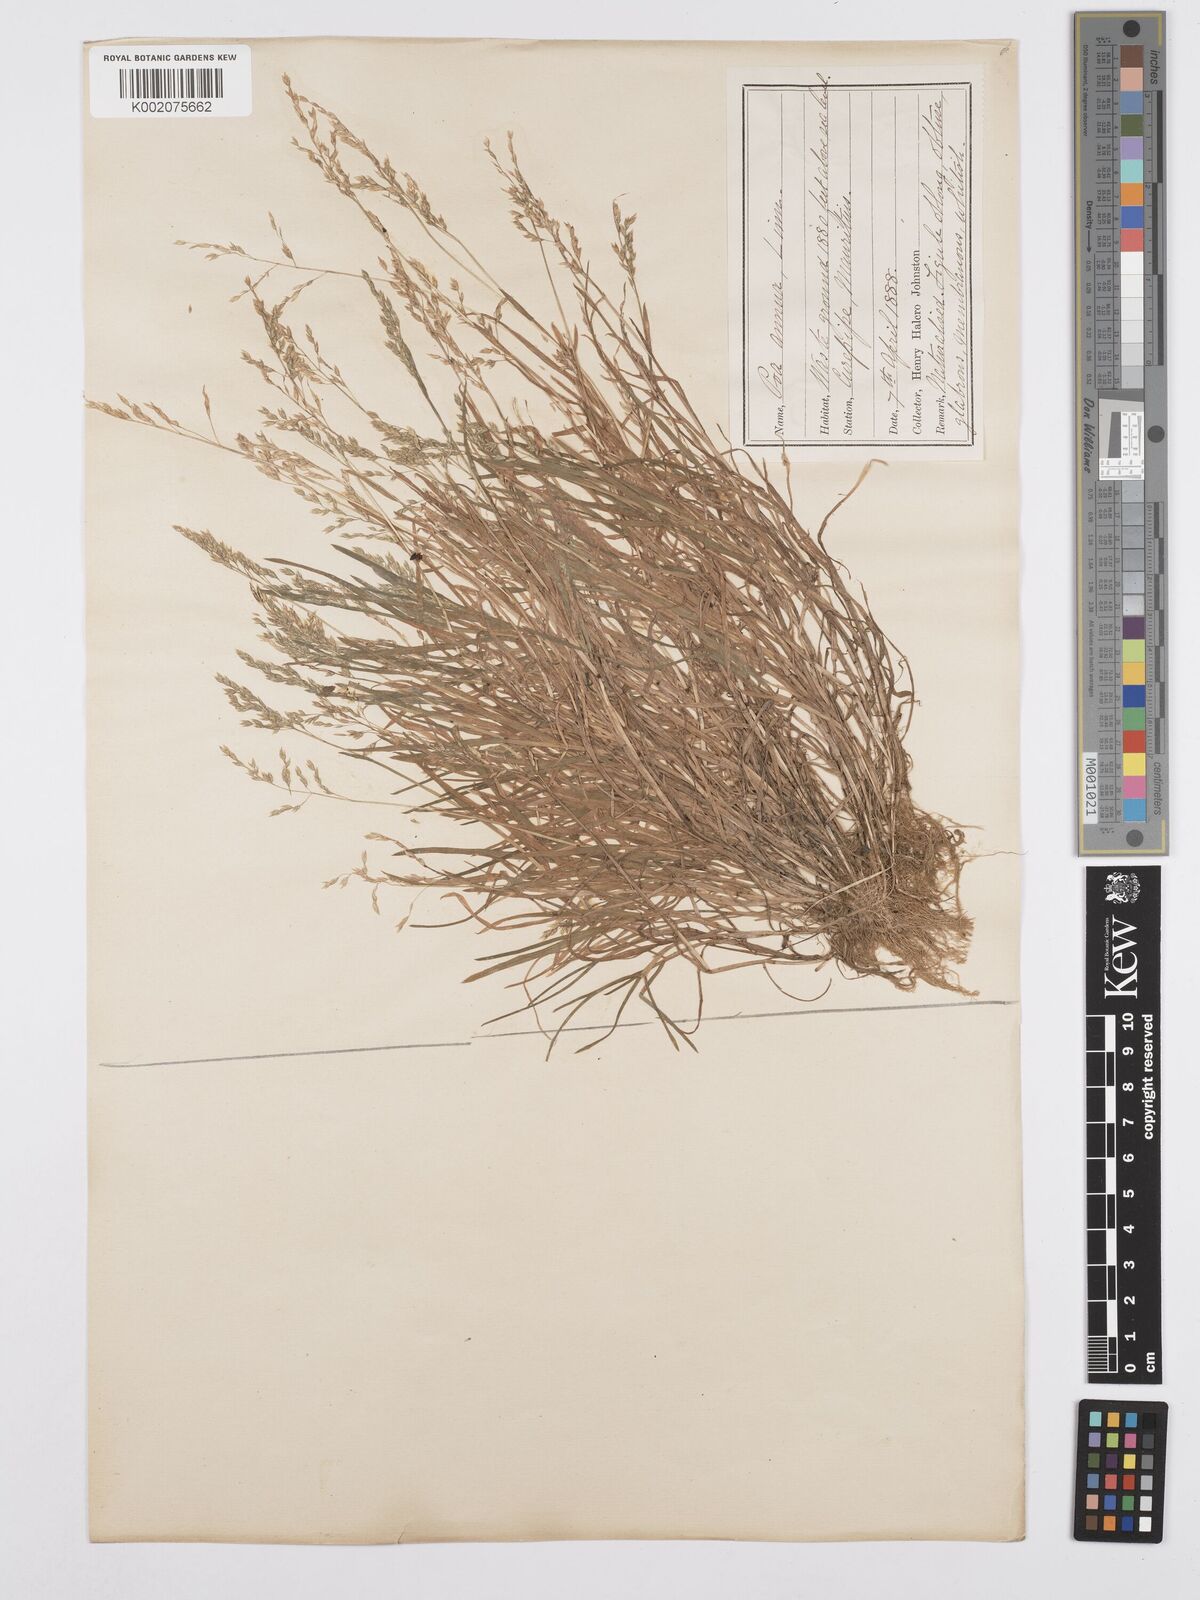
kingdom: Plantae
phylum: Tracheophyta
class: Liliopsida
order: Poales
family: Poaceae
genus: Poa
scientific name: Poa annua
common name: Annual bluegrass
